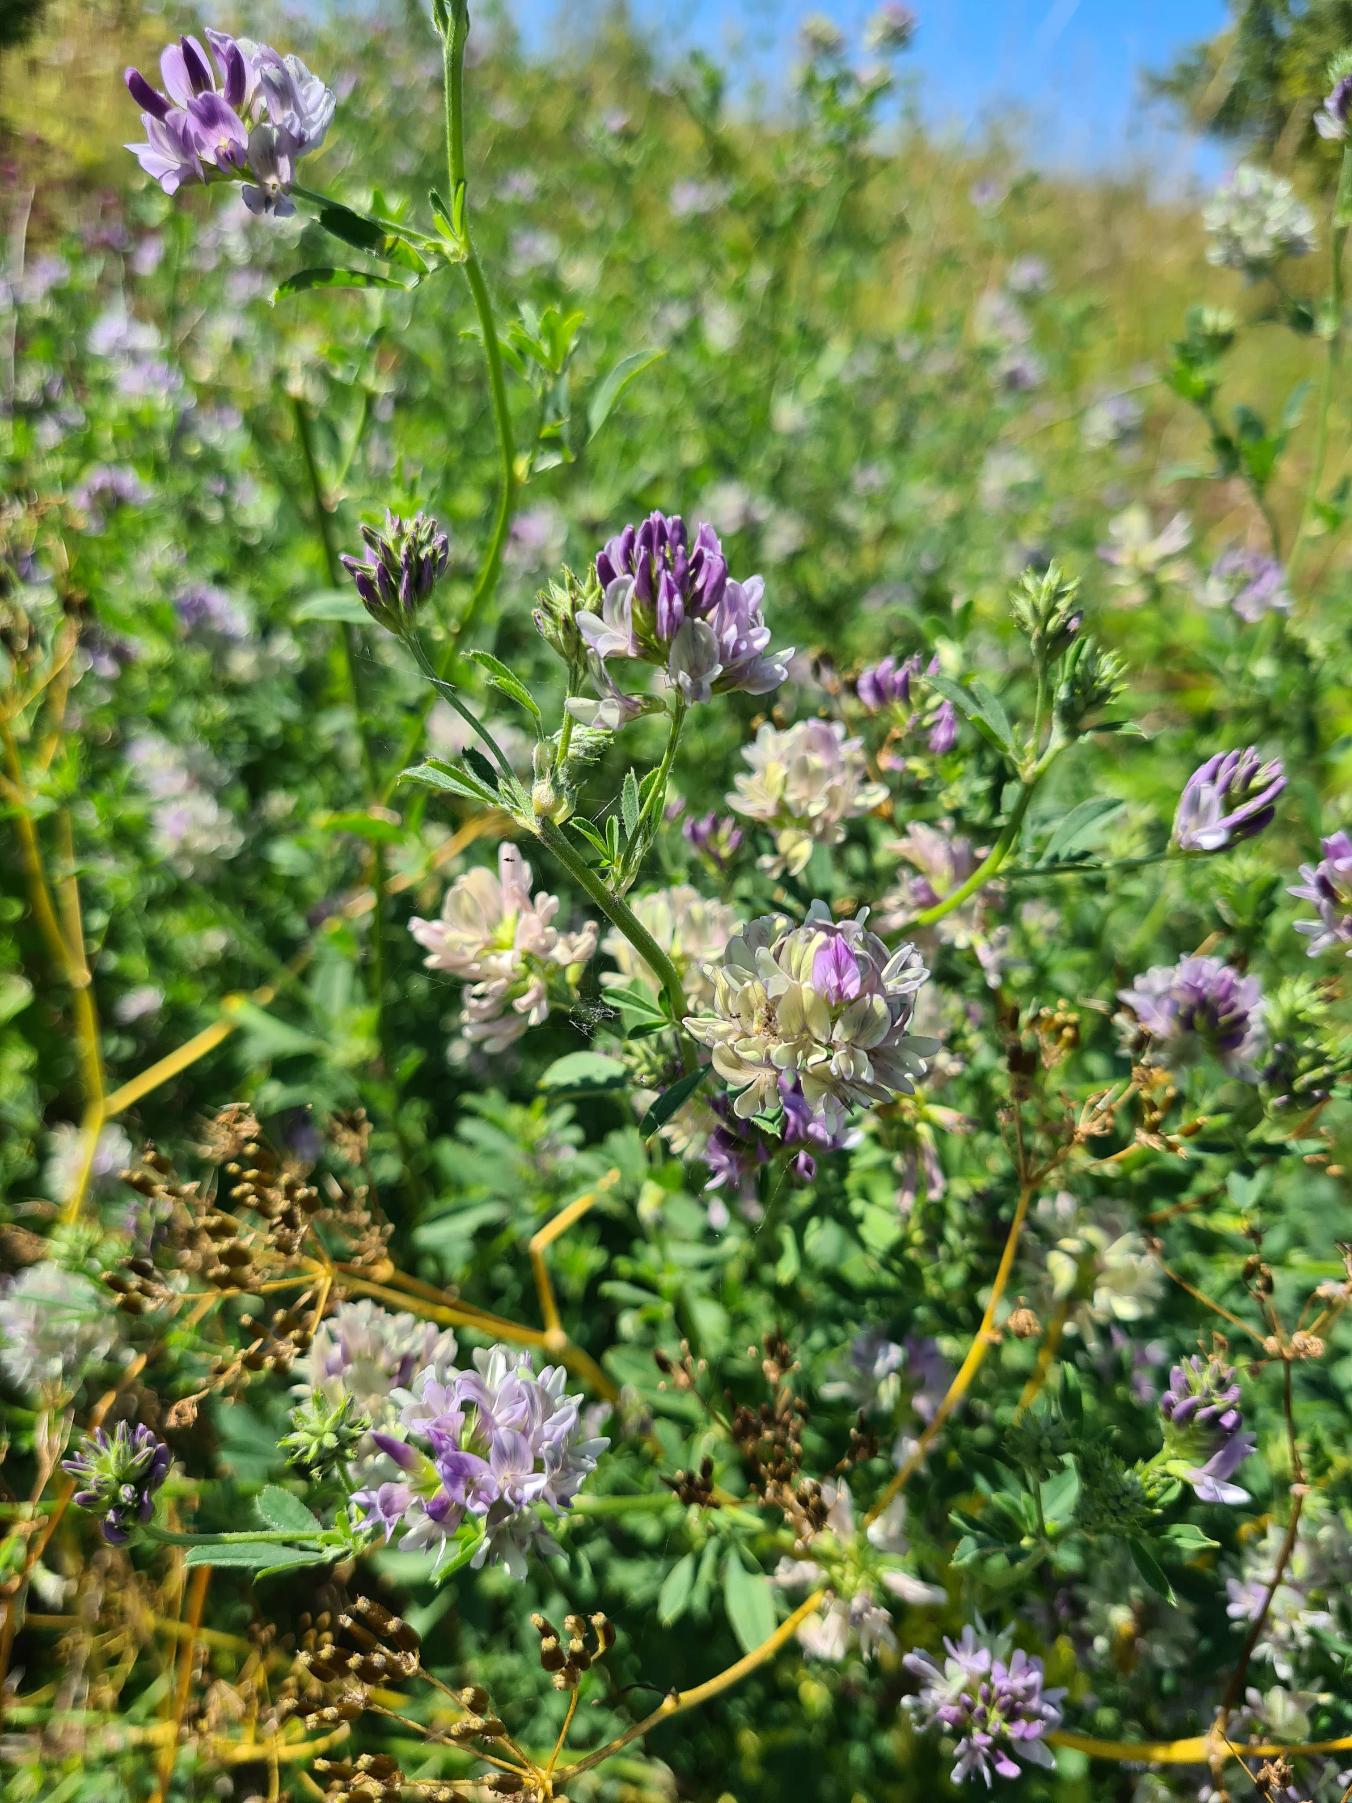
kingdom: Plantae
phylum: Tracheophyta
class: Magnoliopsida
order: Fabales
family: Fabaceae
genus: Medicago
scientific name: Medicago varia
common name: Sand-lucerne
